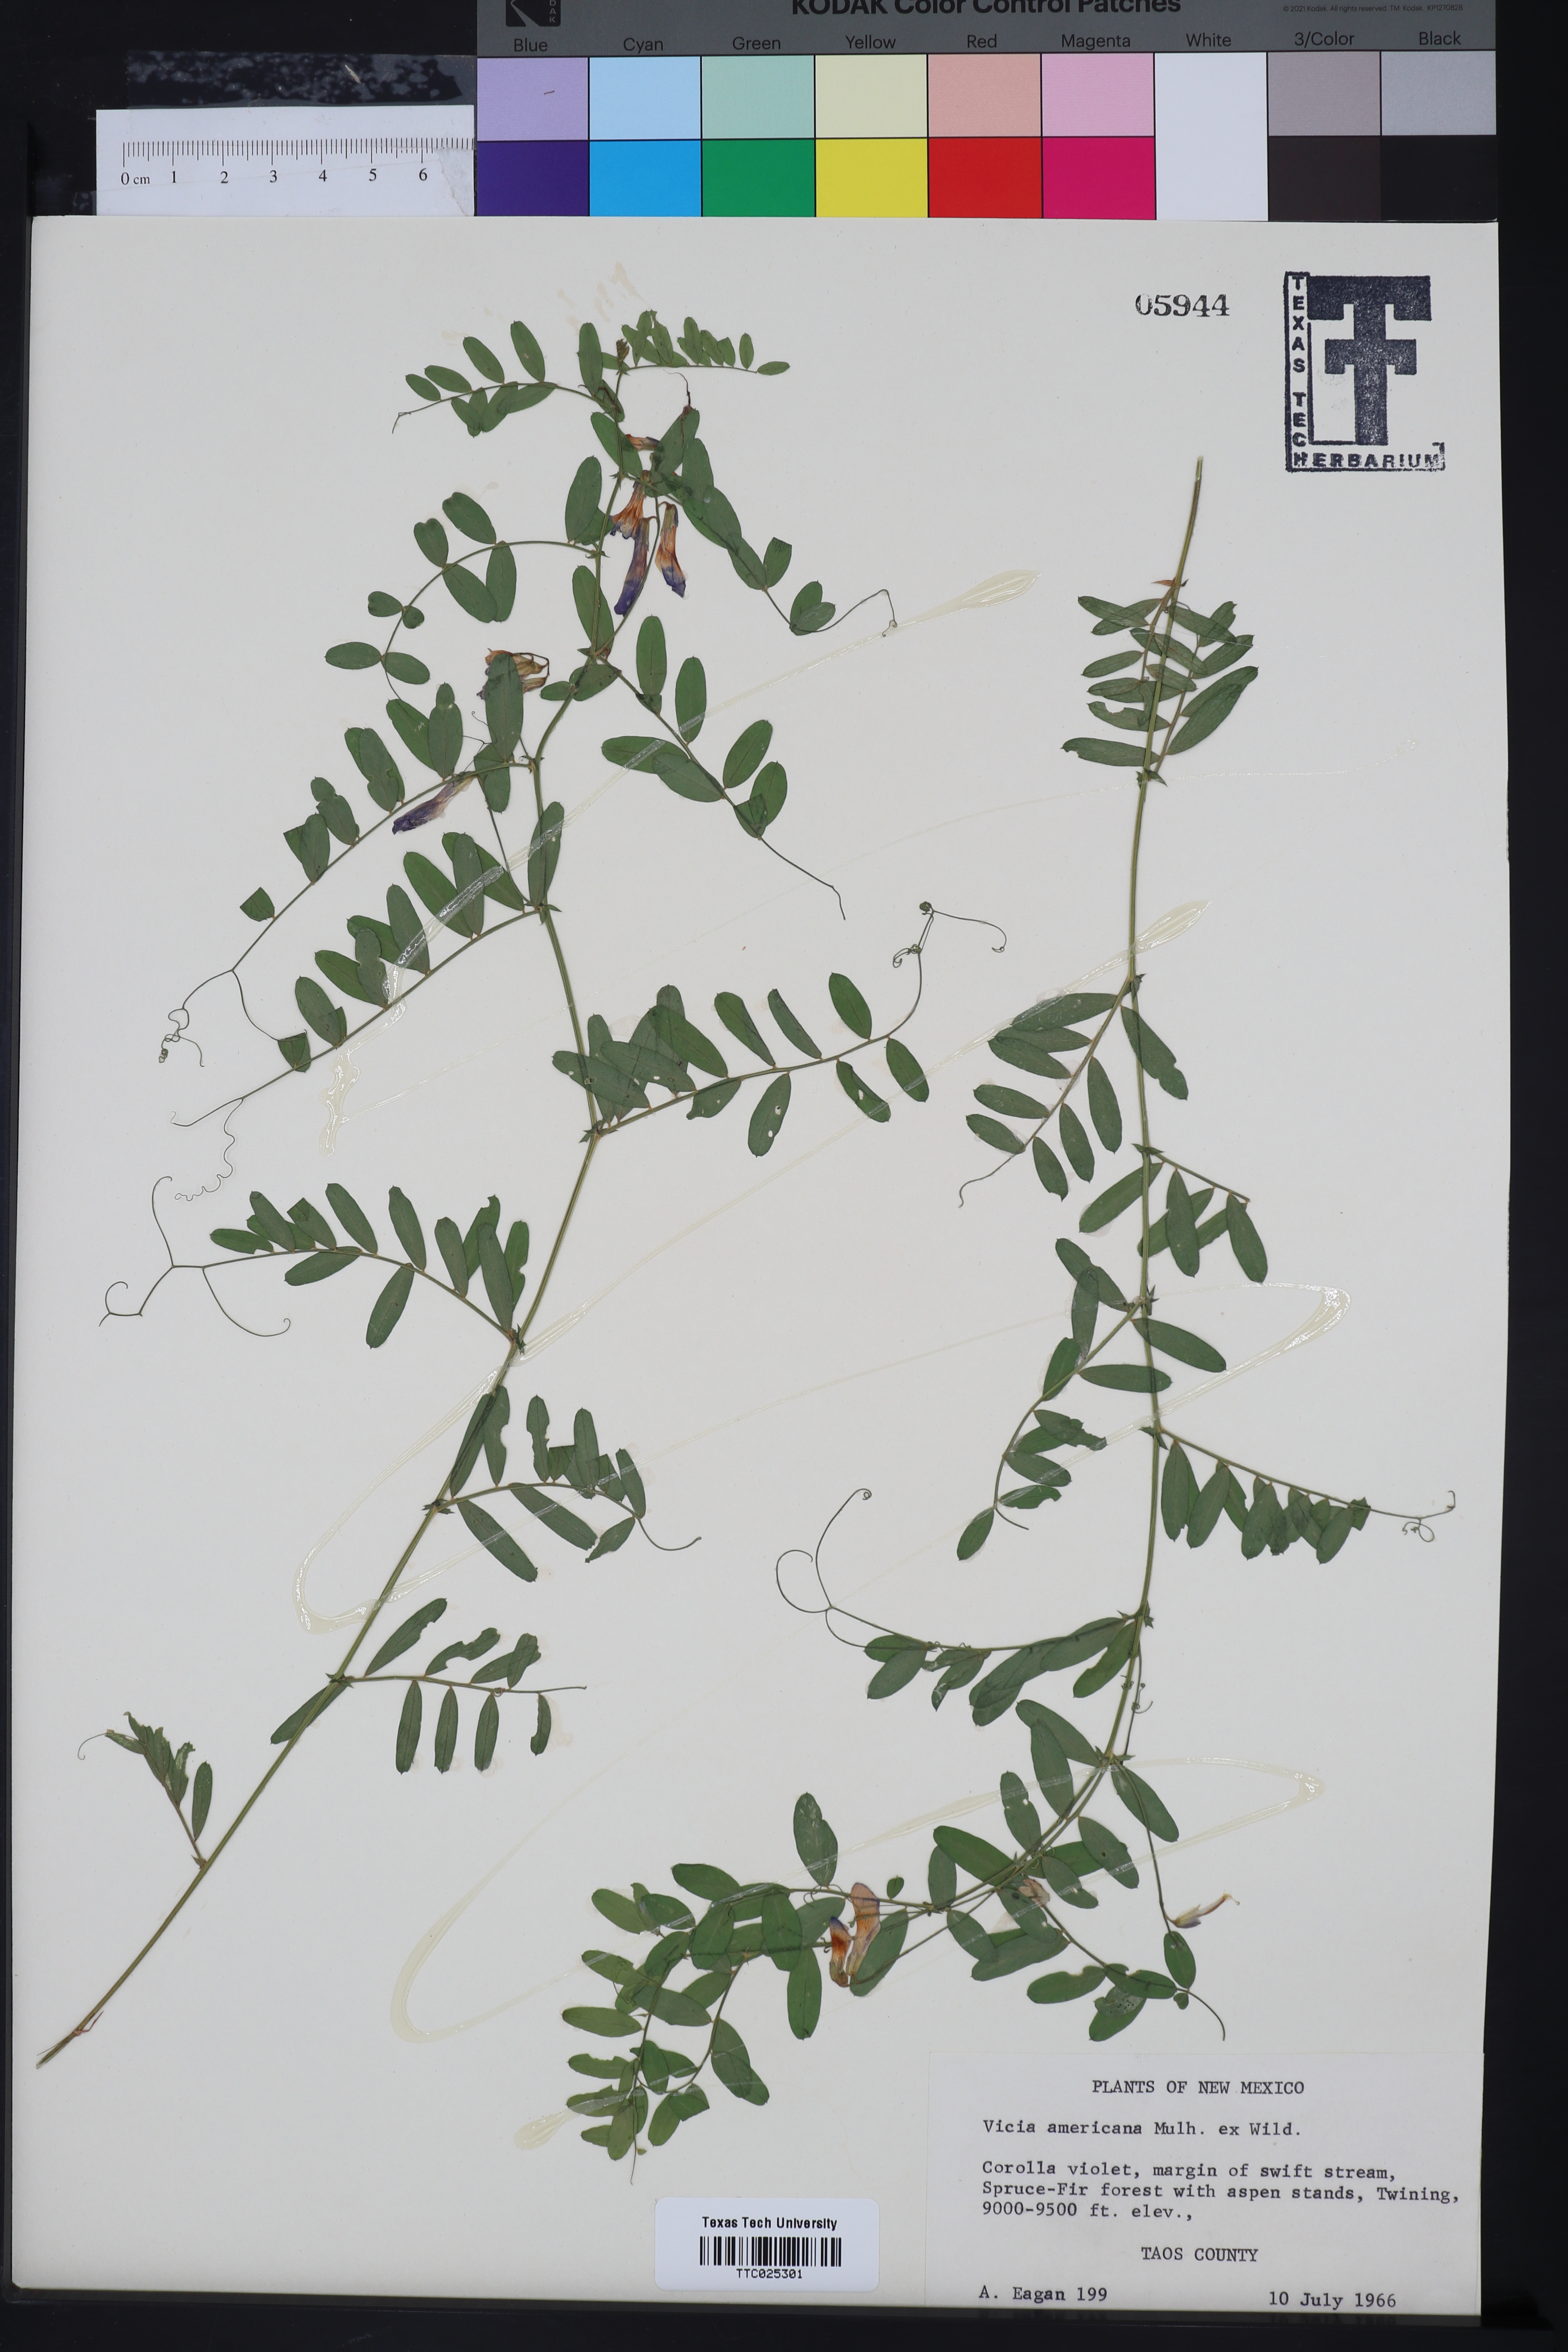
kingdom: Plantae
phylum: Tracheophyta
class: Magnoliopsida
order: Fabales
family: Fabaceae
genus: Vicia
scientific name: Vicia americana
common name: American vetch
